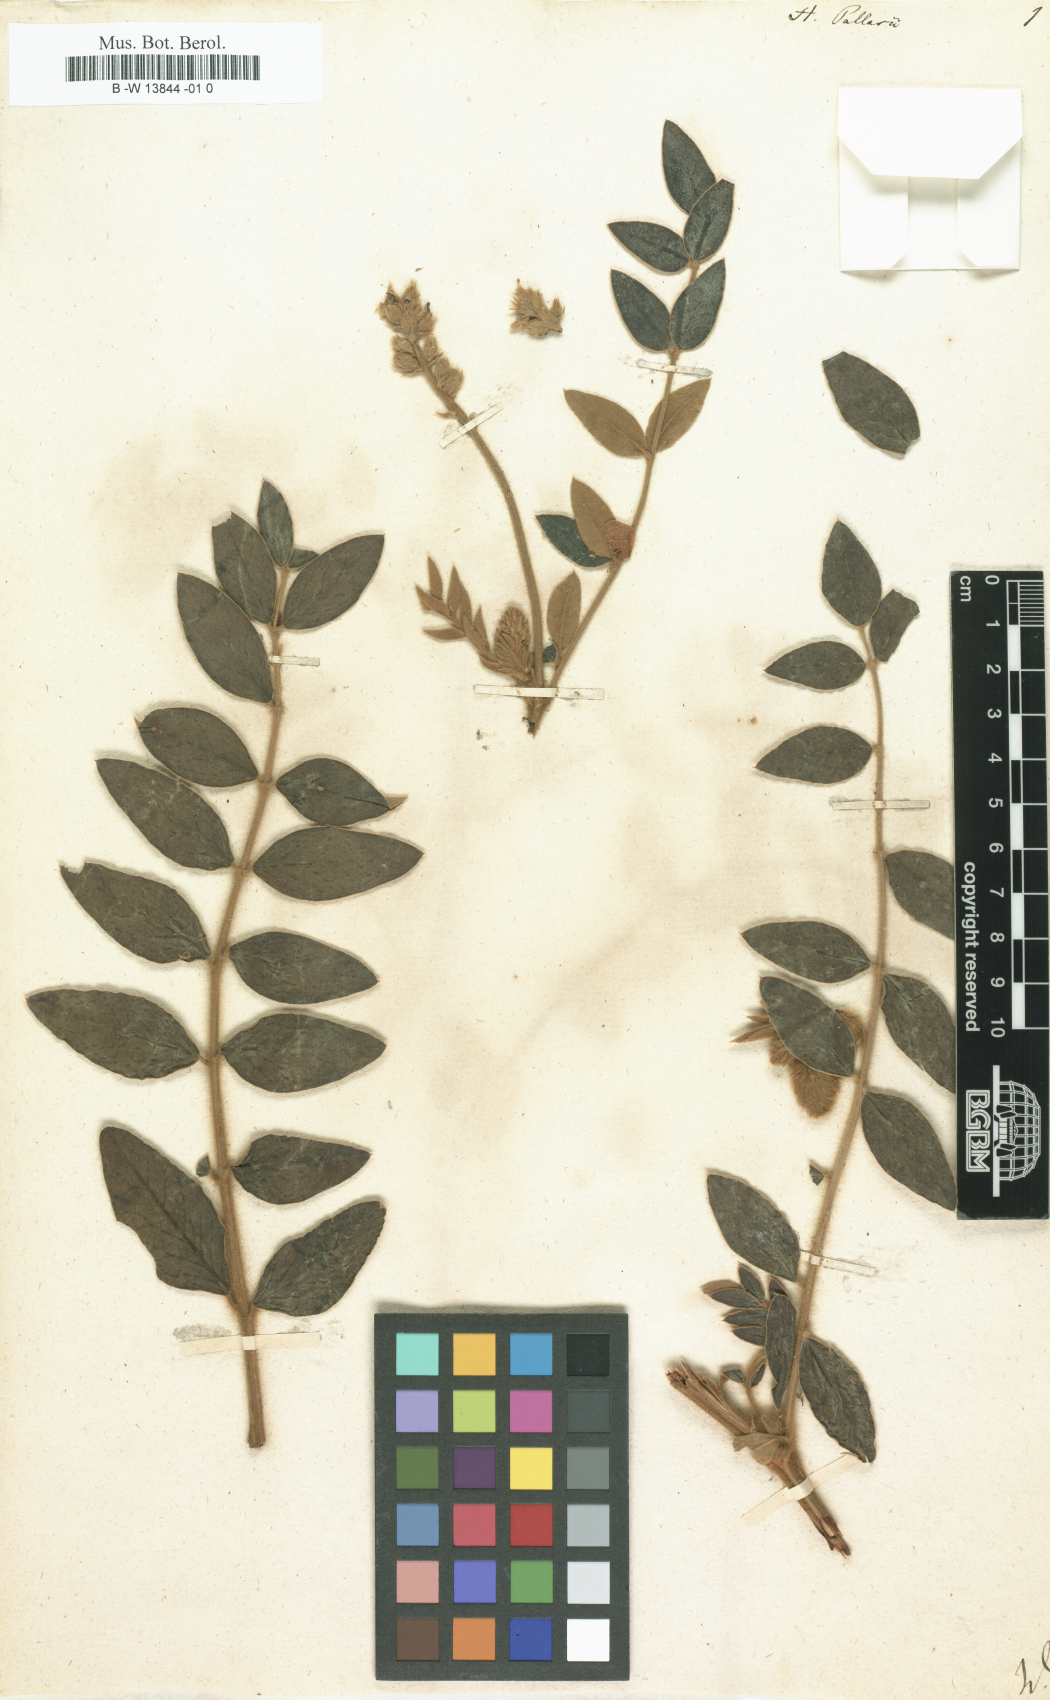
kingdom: Plantae
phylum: Tracheophyta
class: Magnoliopsida
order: Fabales
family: Fabaceae
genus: Onobrychis
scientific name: Onobrychis pallasii
